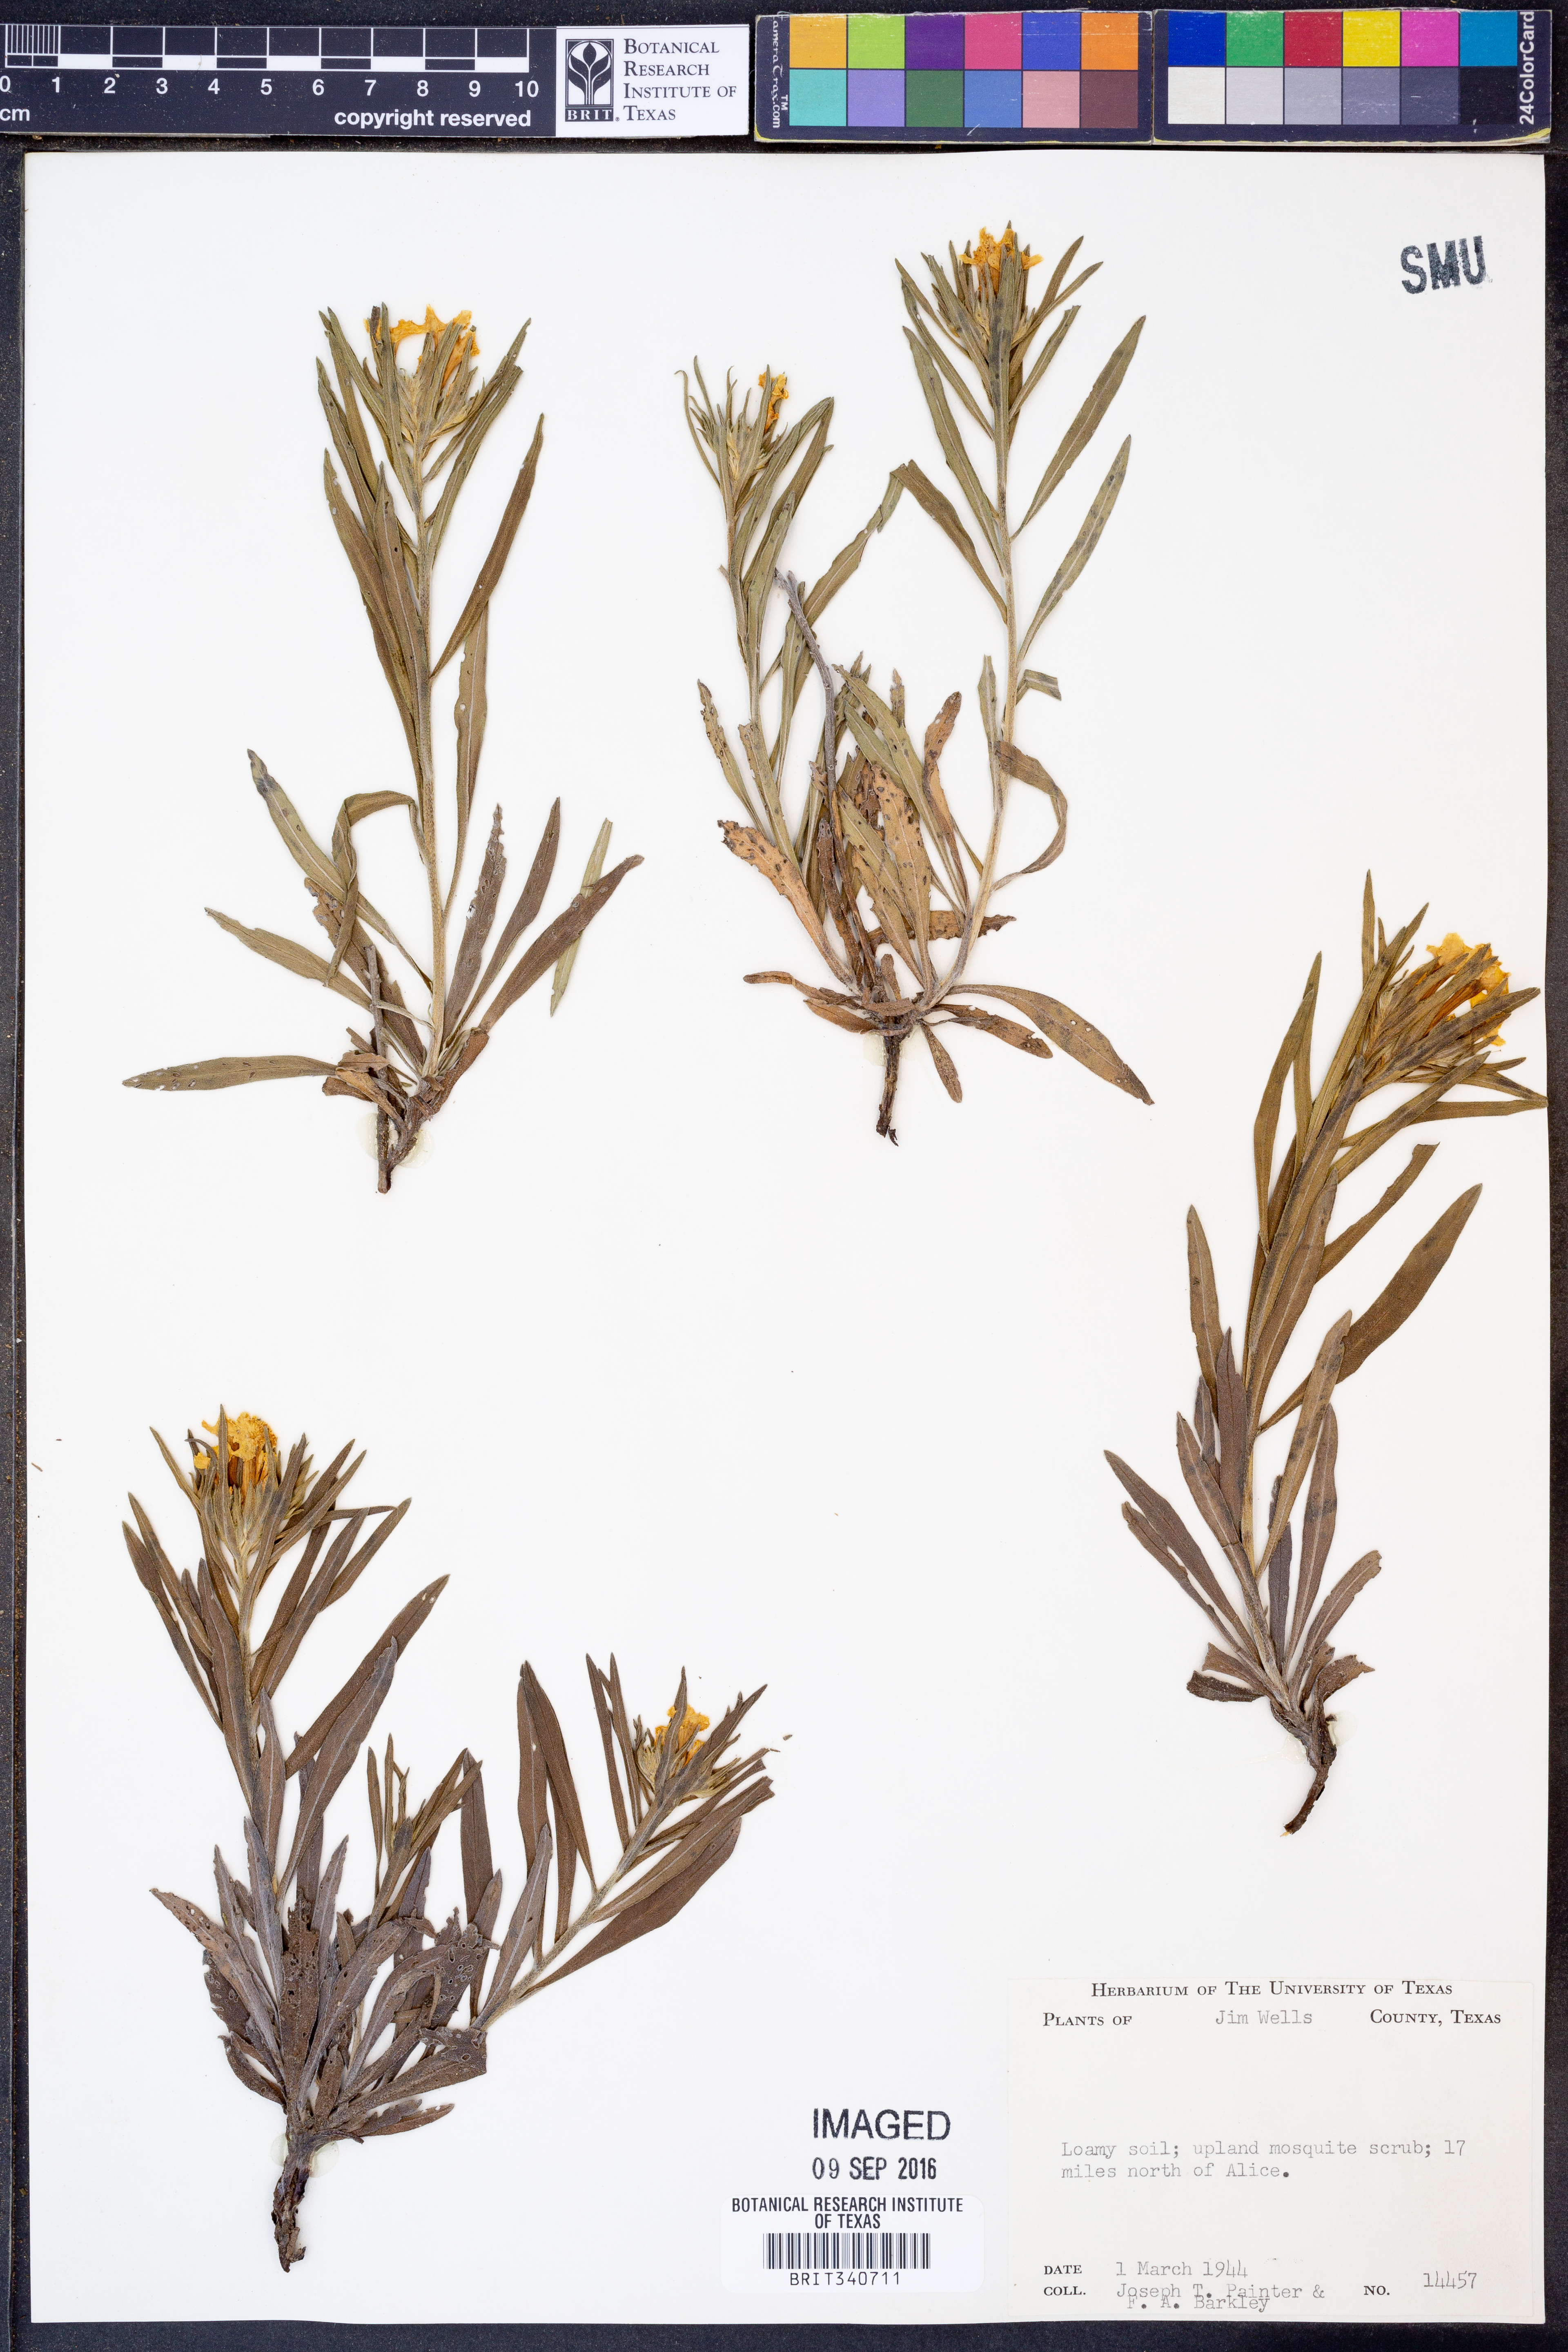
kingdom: Plantae
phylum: Tracheophyta
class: Magnoliopsida
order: Boraginales
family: Boraginaceae
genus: Lithospermum
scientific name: Lithospermum incisum
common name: Fringed gromwell
